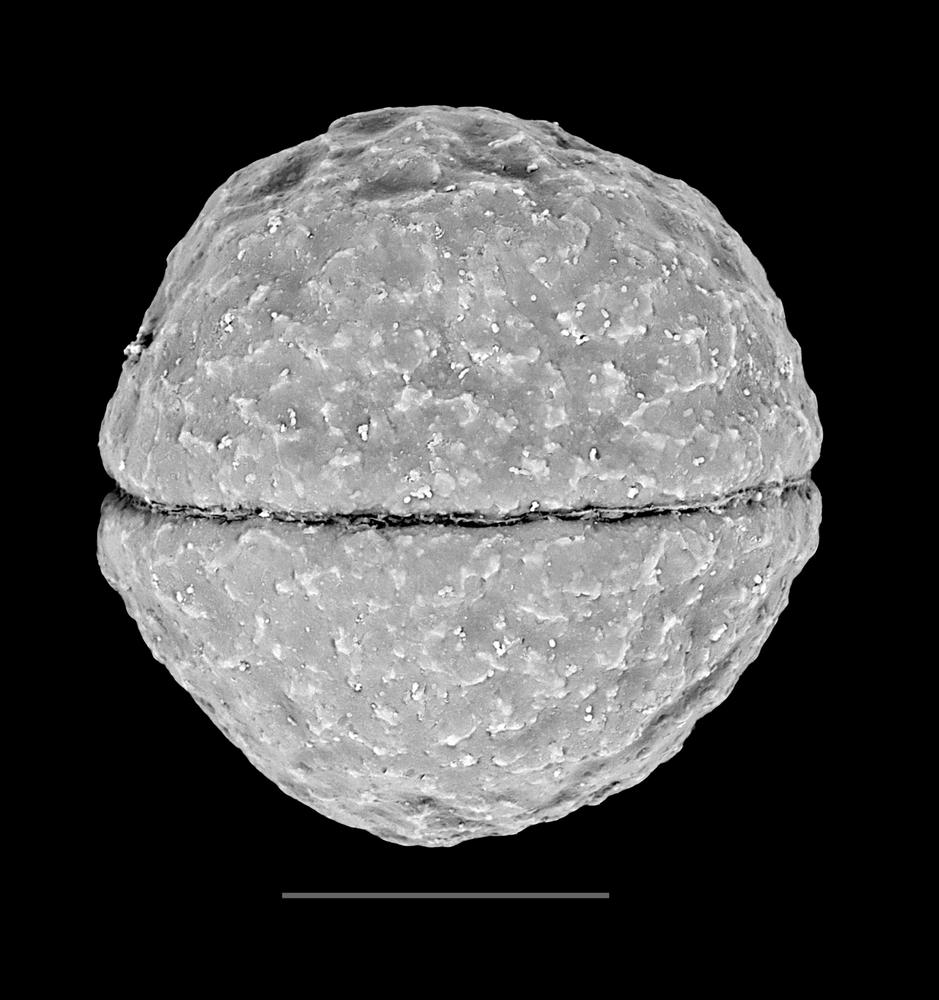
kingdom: Animalia
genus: Vikisphaera
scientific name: Vikisphaera
